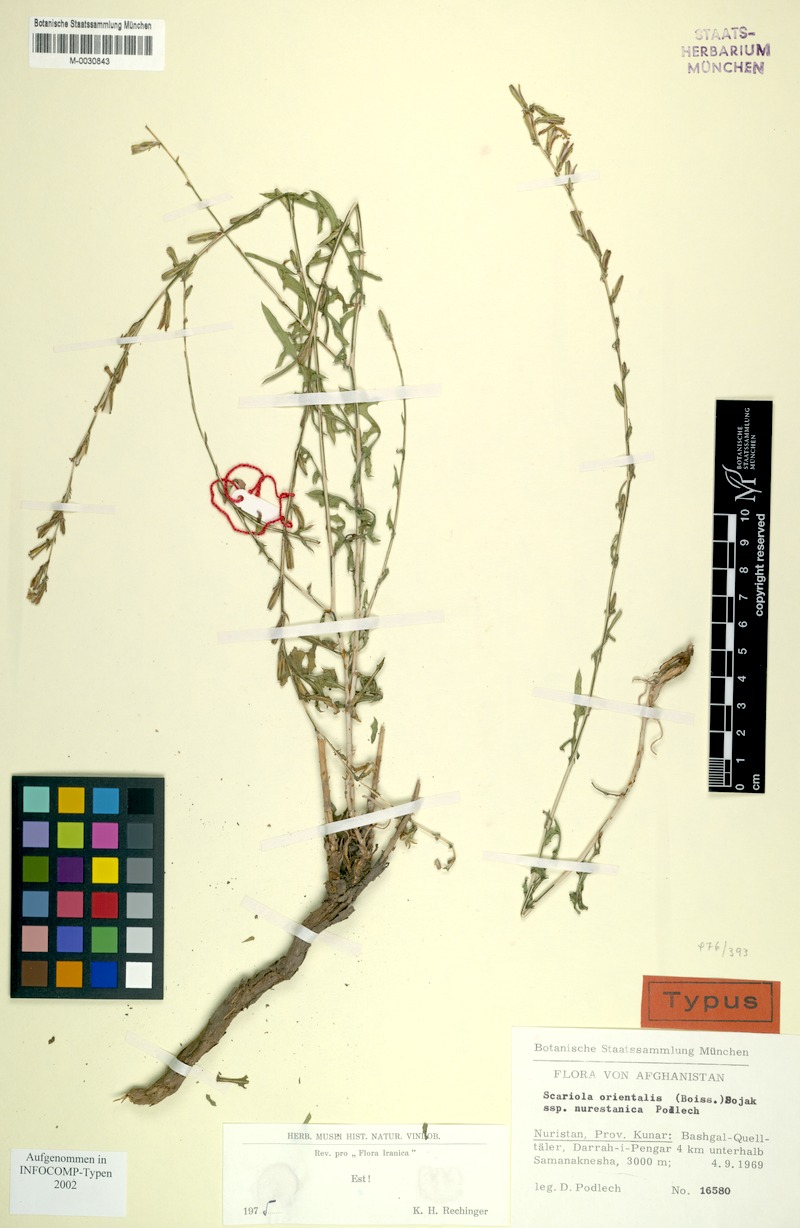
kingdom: Plantae
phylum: Tracheophyta
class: Magnoliopsida
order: Asterales
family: Asteraceae
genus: Lactuca
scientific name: Lactuca orientalis
